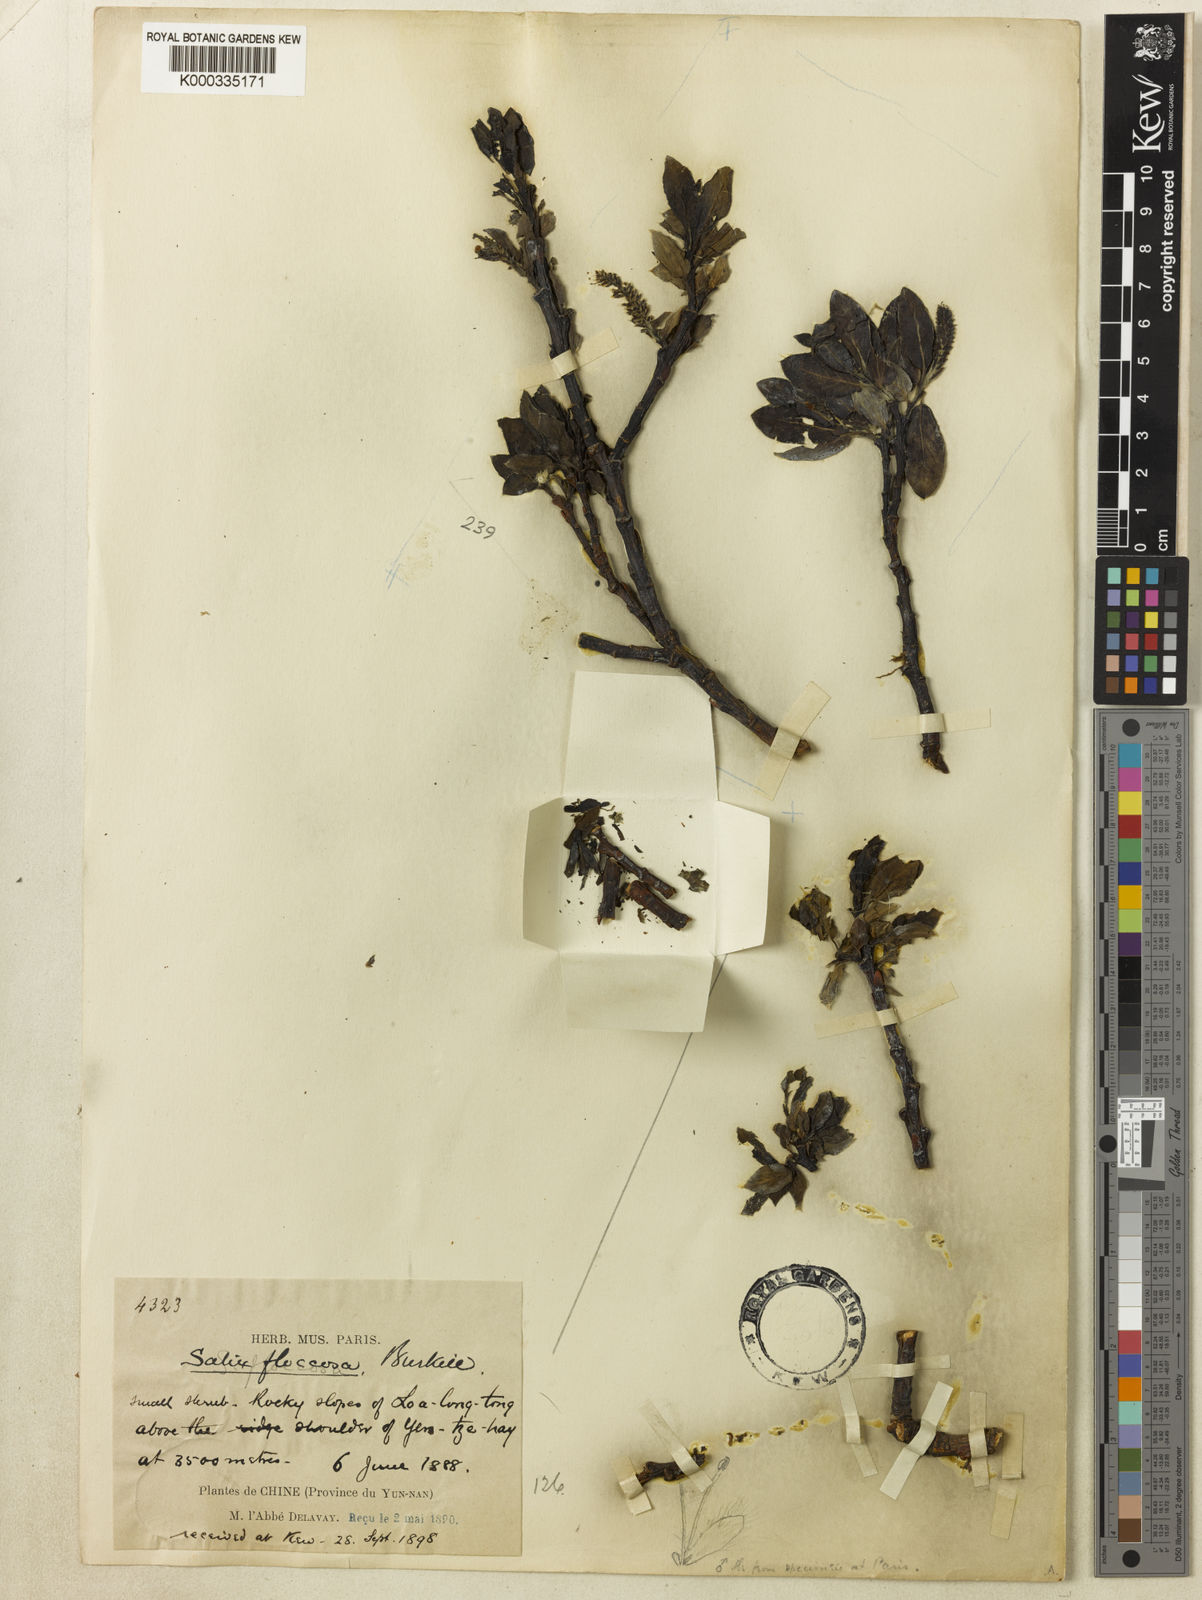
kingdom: Plantae
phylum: Tracheophyta
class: Magnoliopsida
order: Malpighiales
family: Salicaceae
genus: Salix
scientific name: Salix floccosa
